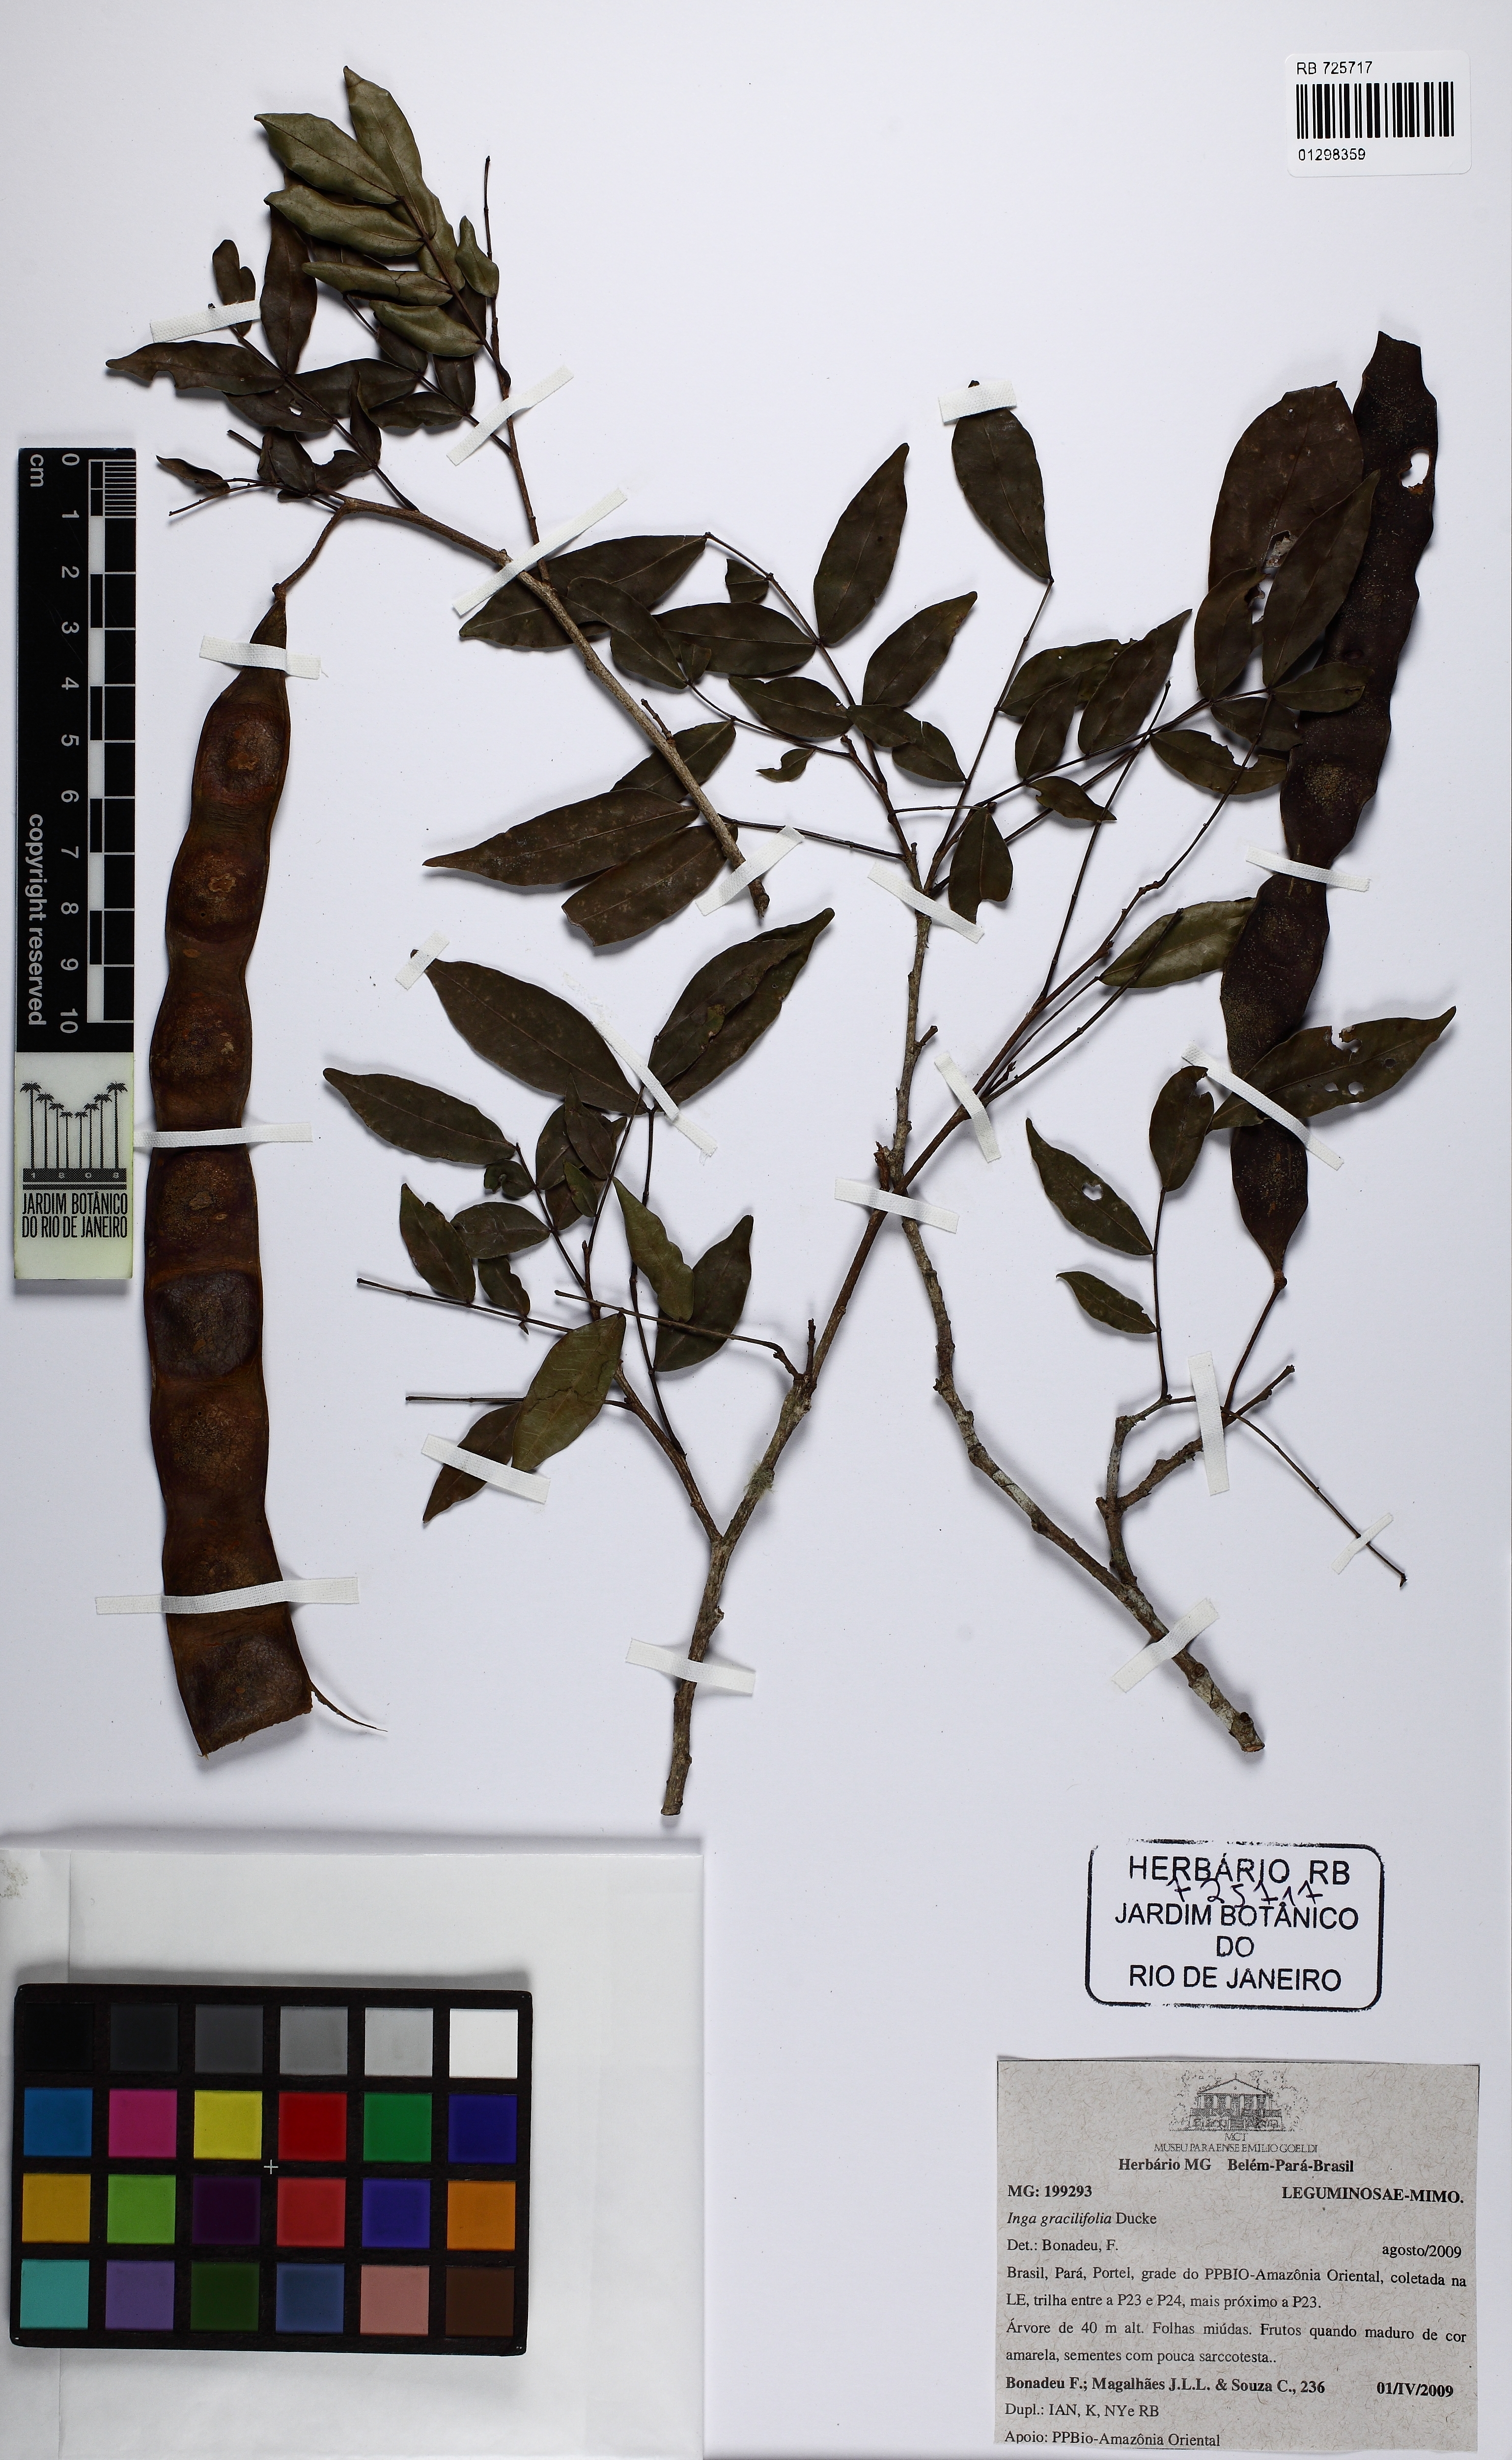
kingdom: Plantae
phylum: Tracheophyta
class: Magnoliopsida
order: Fabales
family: Fabaceae
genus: Inga
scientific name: Inga gracilifolia
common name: Gracefulleaf inga
